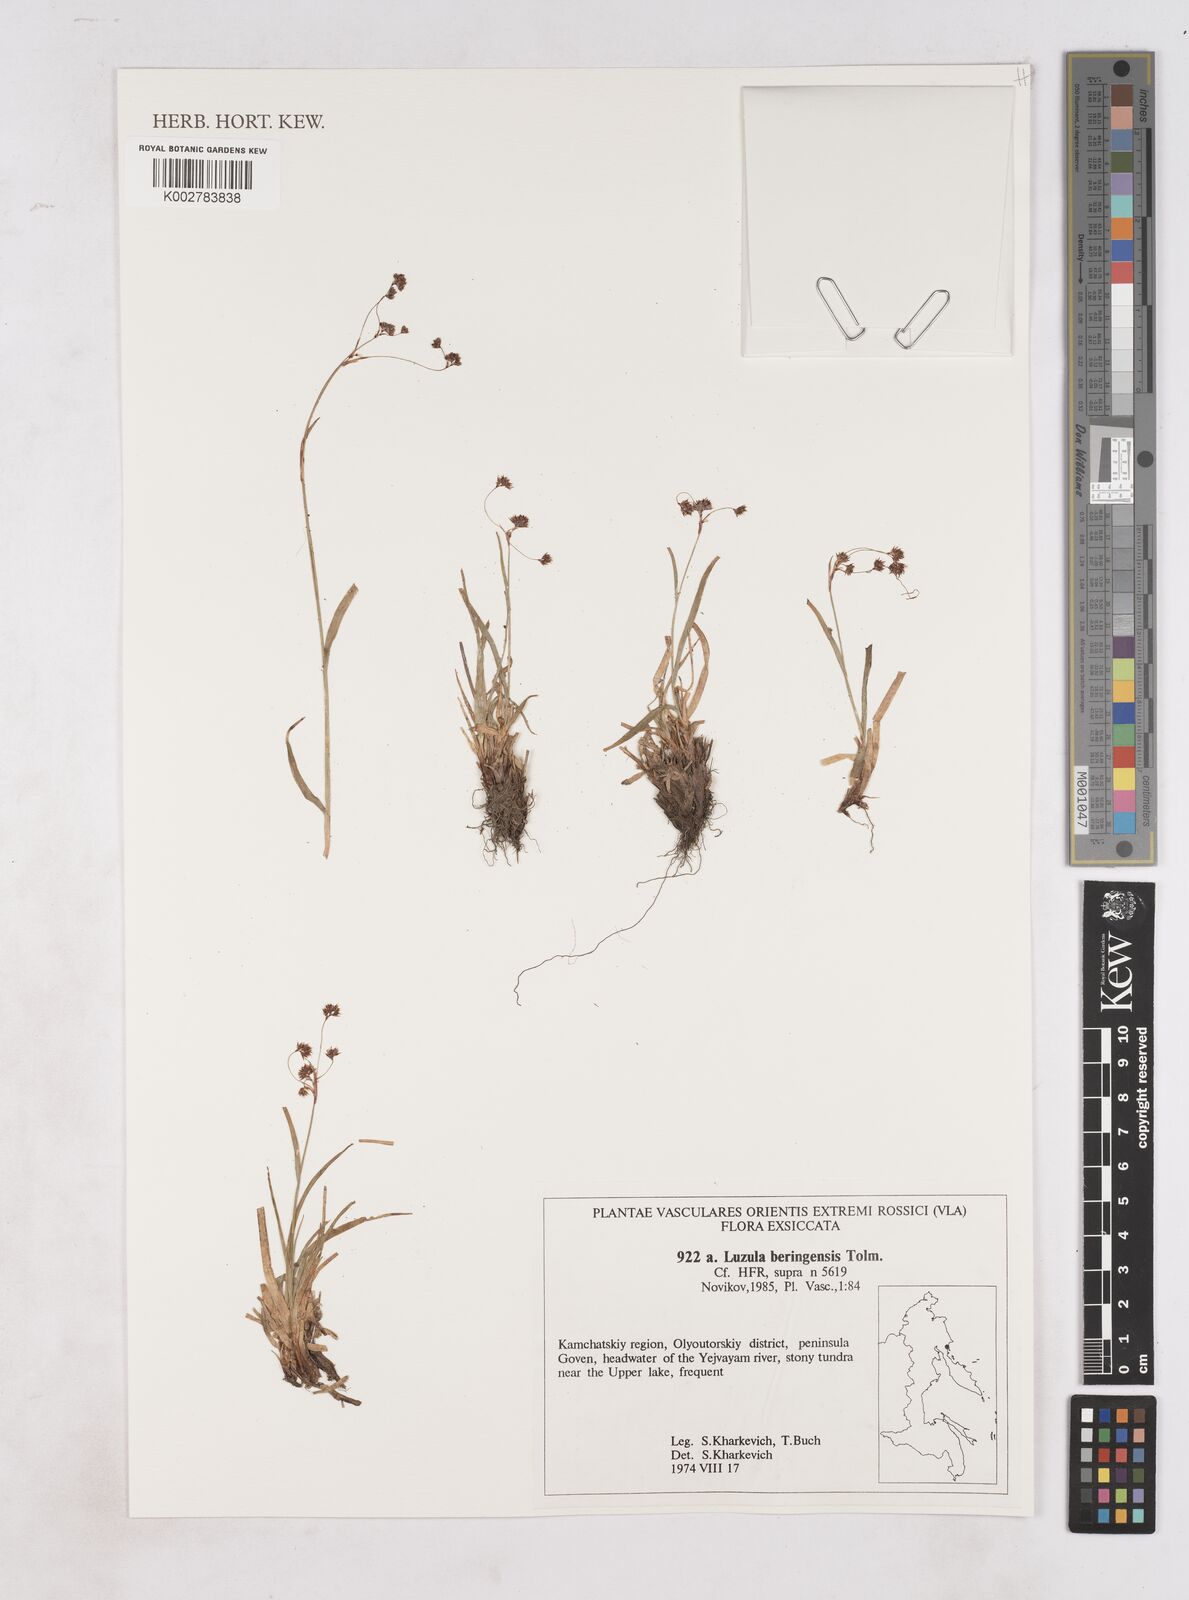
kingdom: Plantae
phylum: Tracheophyta
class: Liliopsida
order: Poales
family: Juncaceae
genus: Luzula
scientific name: Luzula arcuata
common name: Curved wood-rush
